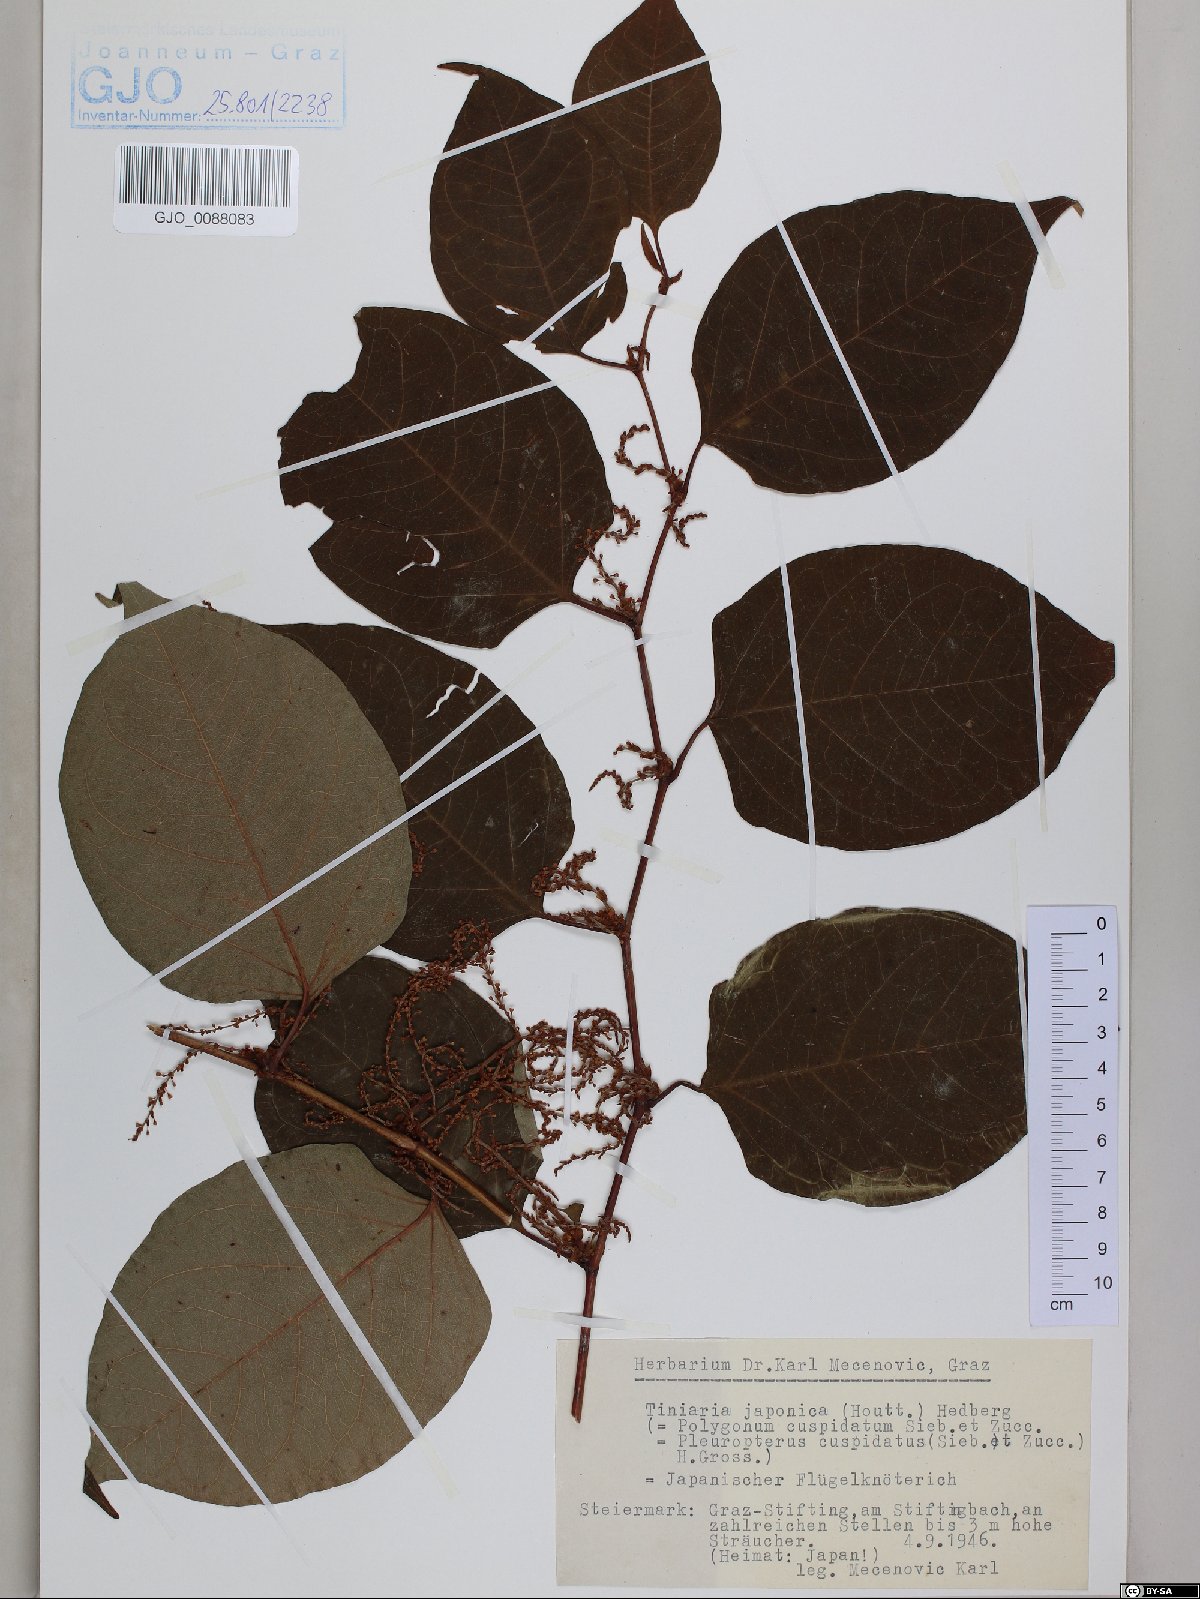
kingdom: Plantae
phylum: Tracheophyta
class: Magnoliopsida
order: Caryophyllales
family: Polygonaceae
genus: Reynoutria
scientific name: Reynoutria japonica
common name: Japanese knotweed
